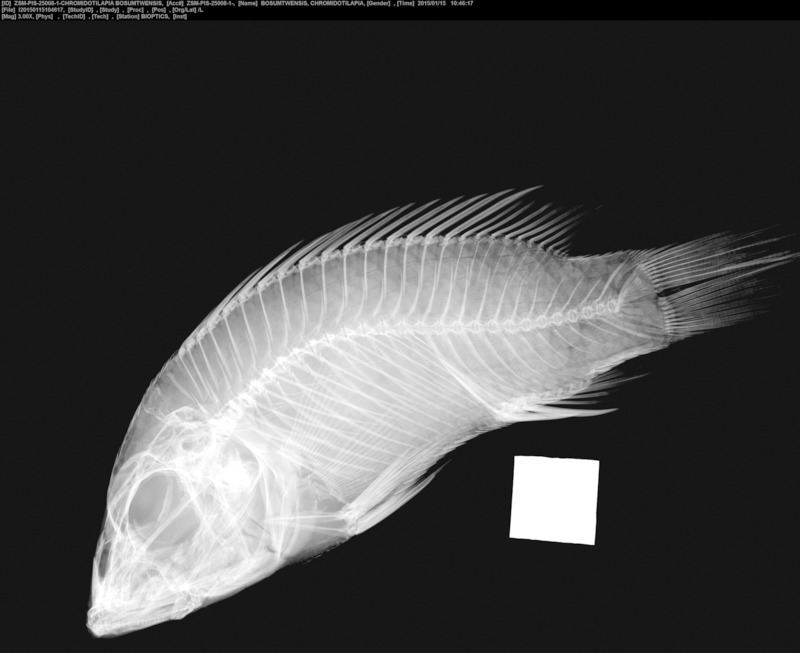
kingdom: Animalia
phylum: Chordata
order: Perciformes
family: Cichlidae
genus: Chromidotilapia
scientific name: Chromidotilapia guntheri
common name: Cichlid
